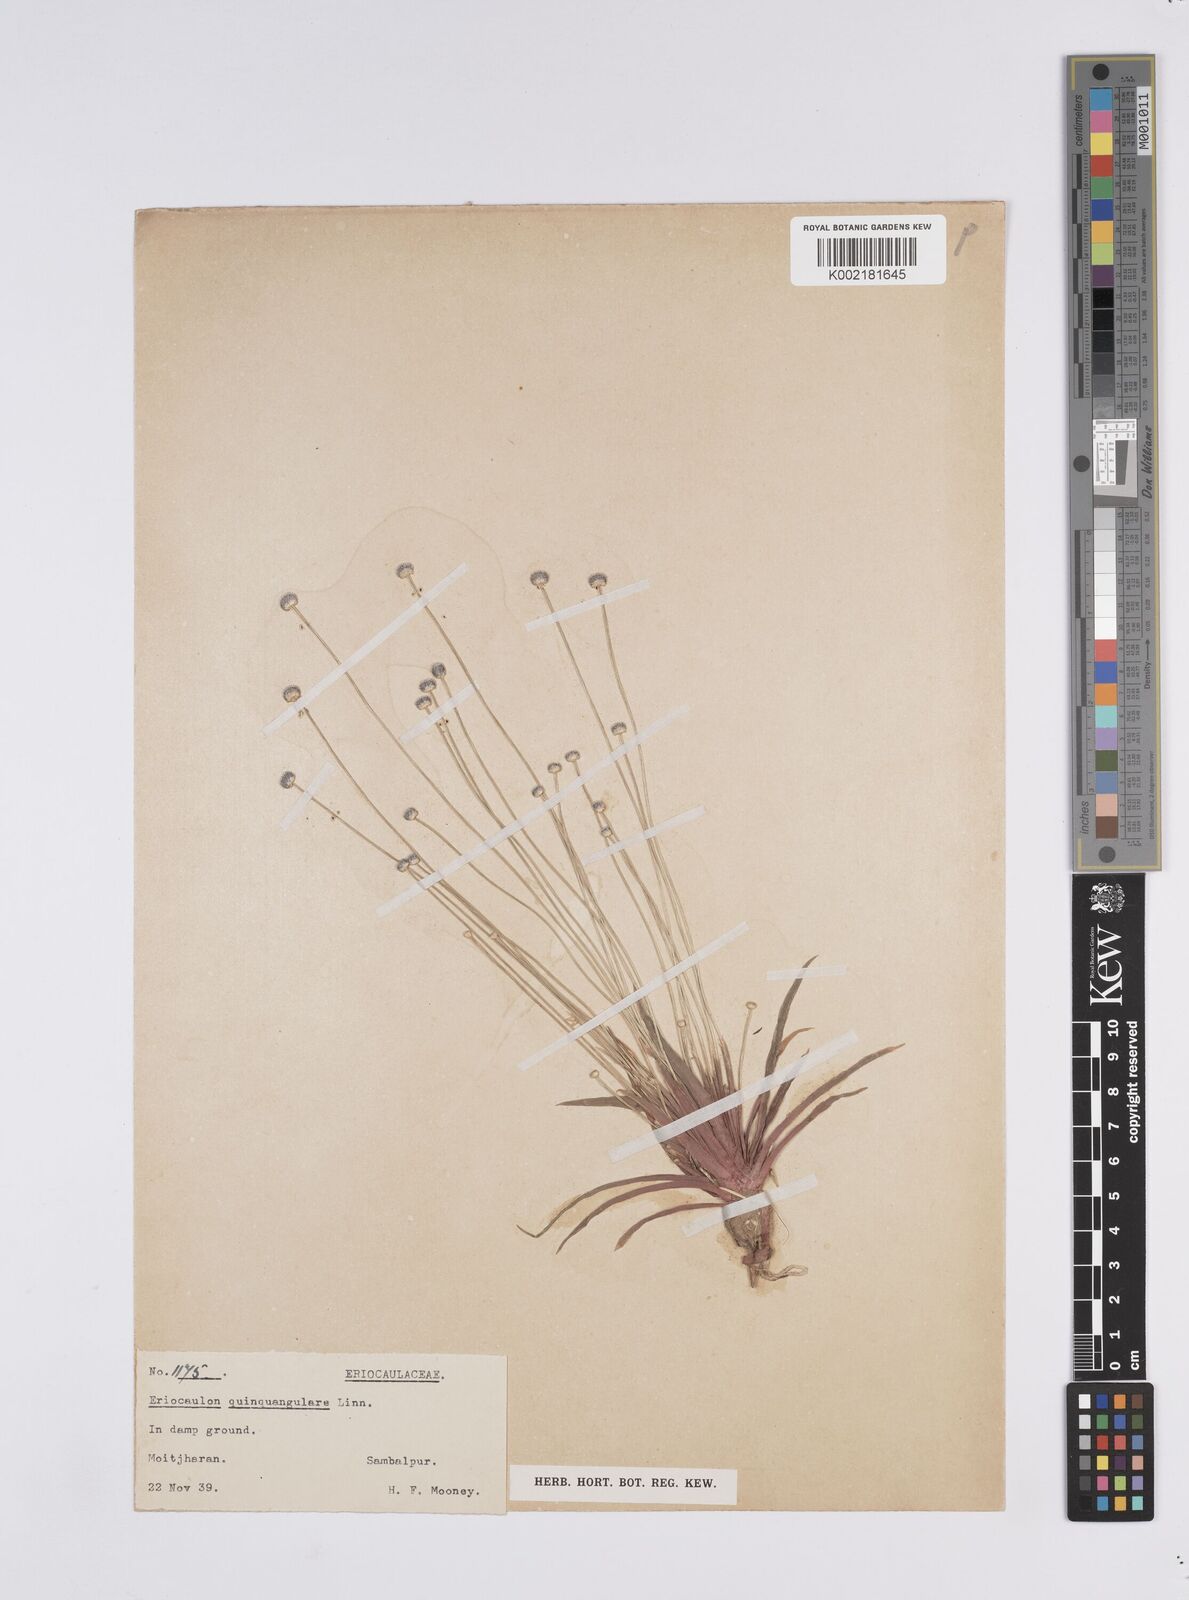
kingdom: Plantae
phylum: Tracheophyta
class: Liliopsida
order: Poales
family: Eriocaulaceae
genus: Eriocaulon
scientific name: Eriocaulon quinquangulare
